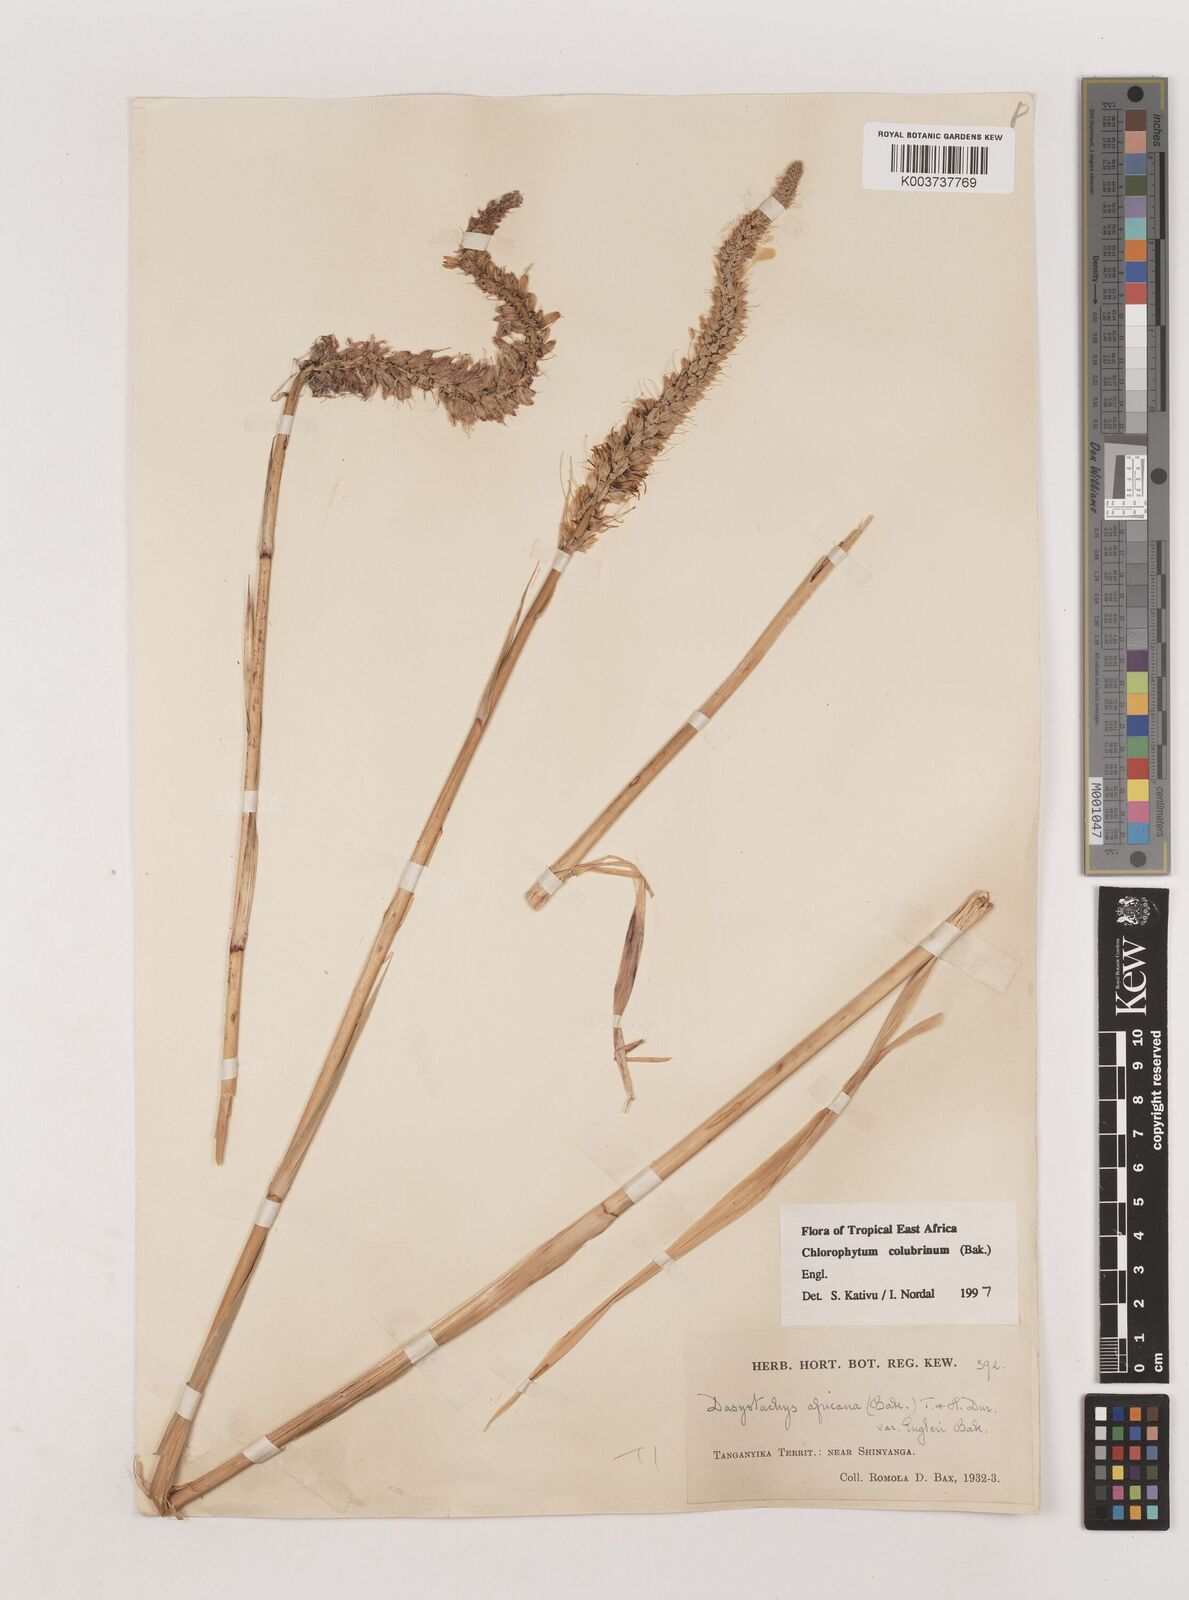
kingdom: Plantae
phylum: Tracheophyta
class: Liliopsida
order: Asparagales
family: Asparagaceae
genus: Chlorophytum
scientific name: Chlorophytum colubrinum
